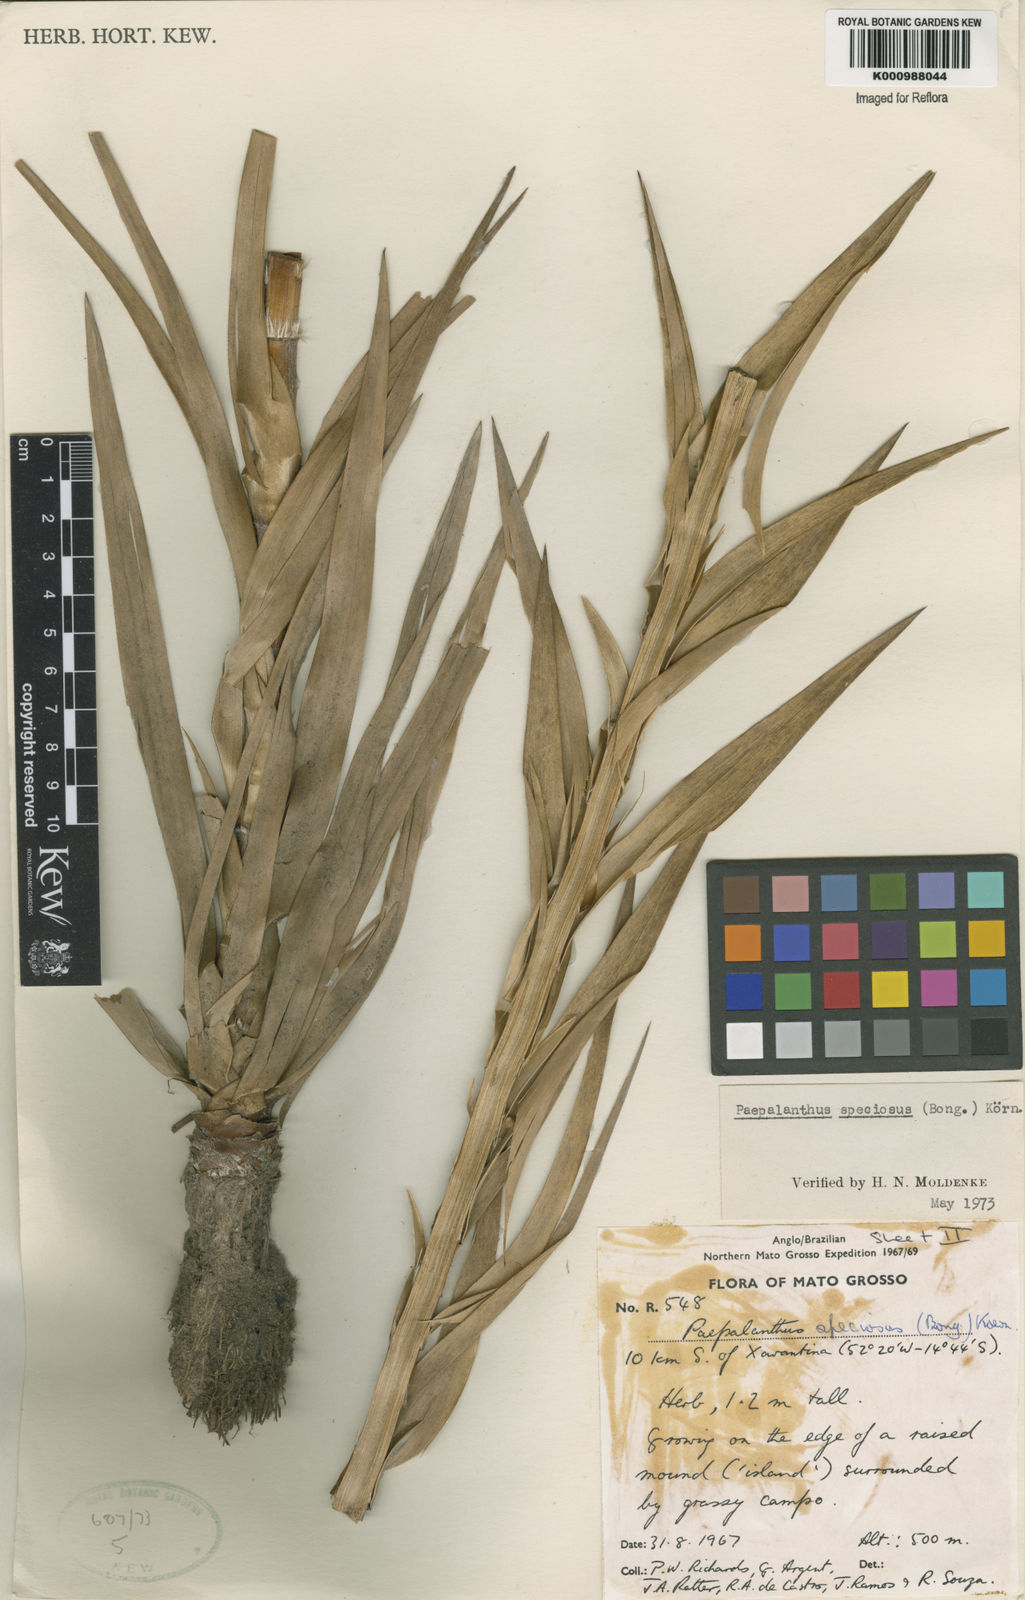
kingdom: Plantae
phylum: Tracheophyta
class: Liliopsida
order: Poales
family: Eriocaulaceae
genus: Paepalanthus
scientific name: Paepalanthus
